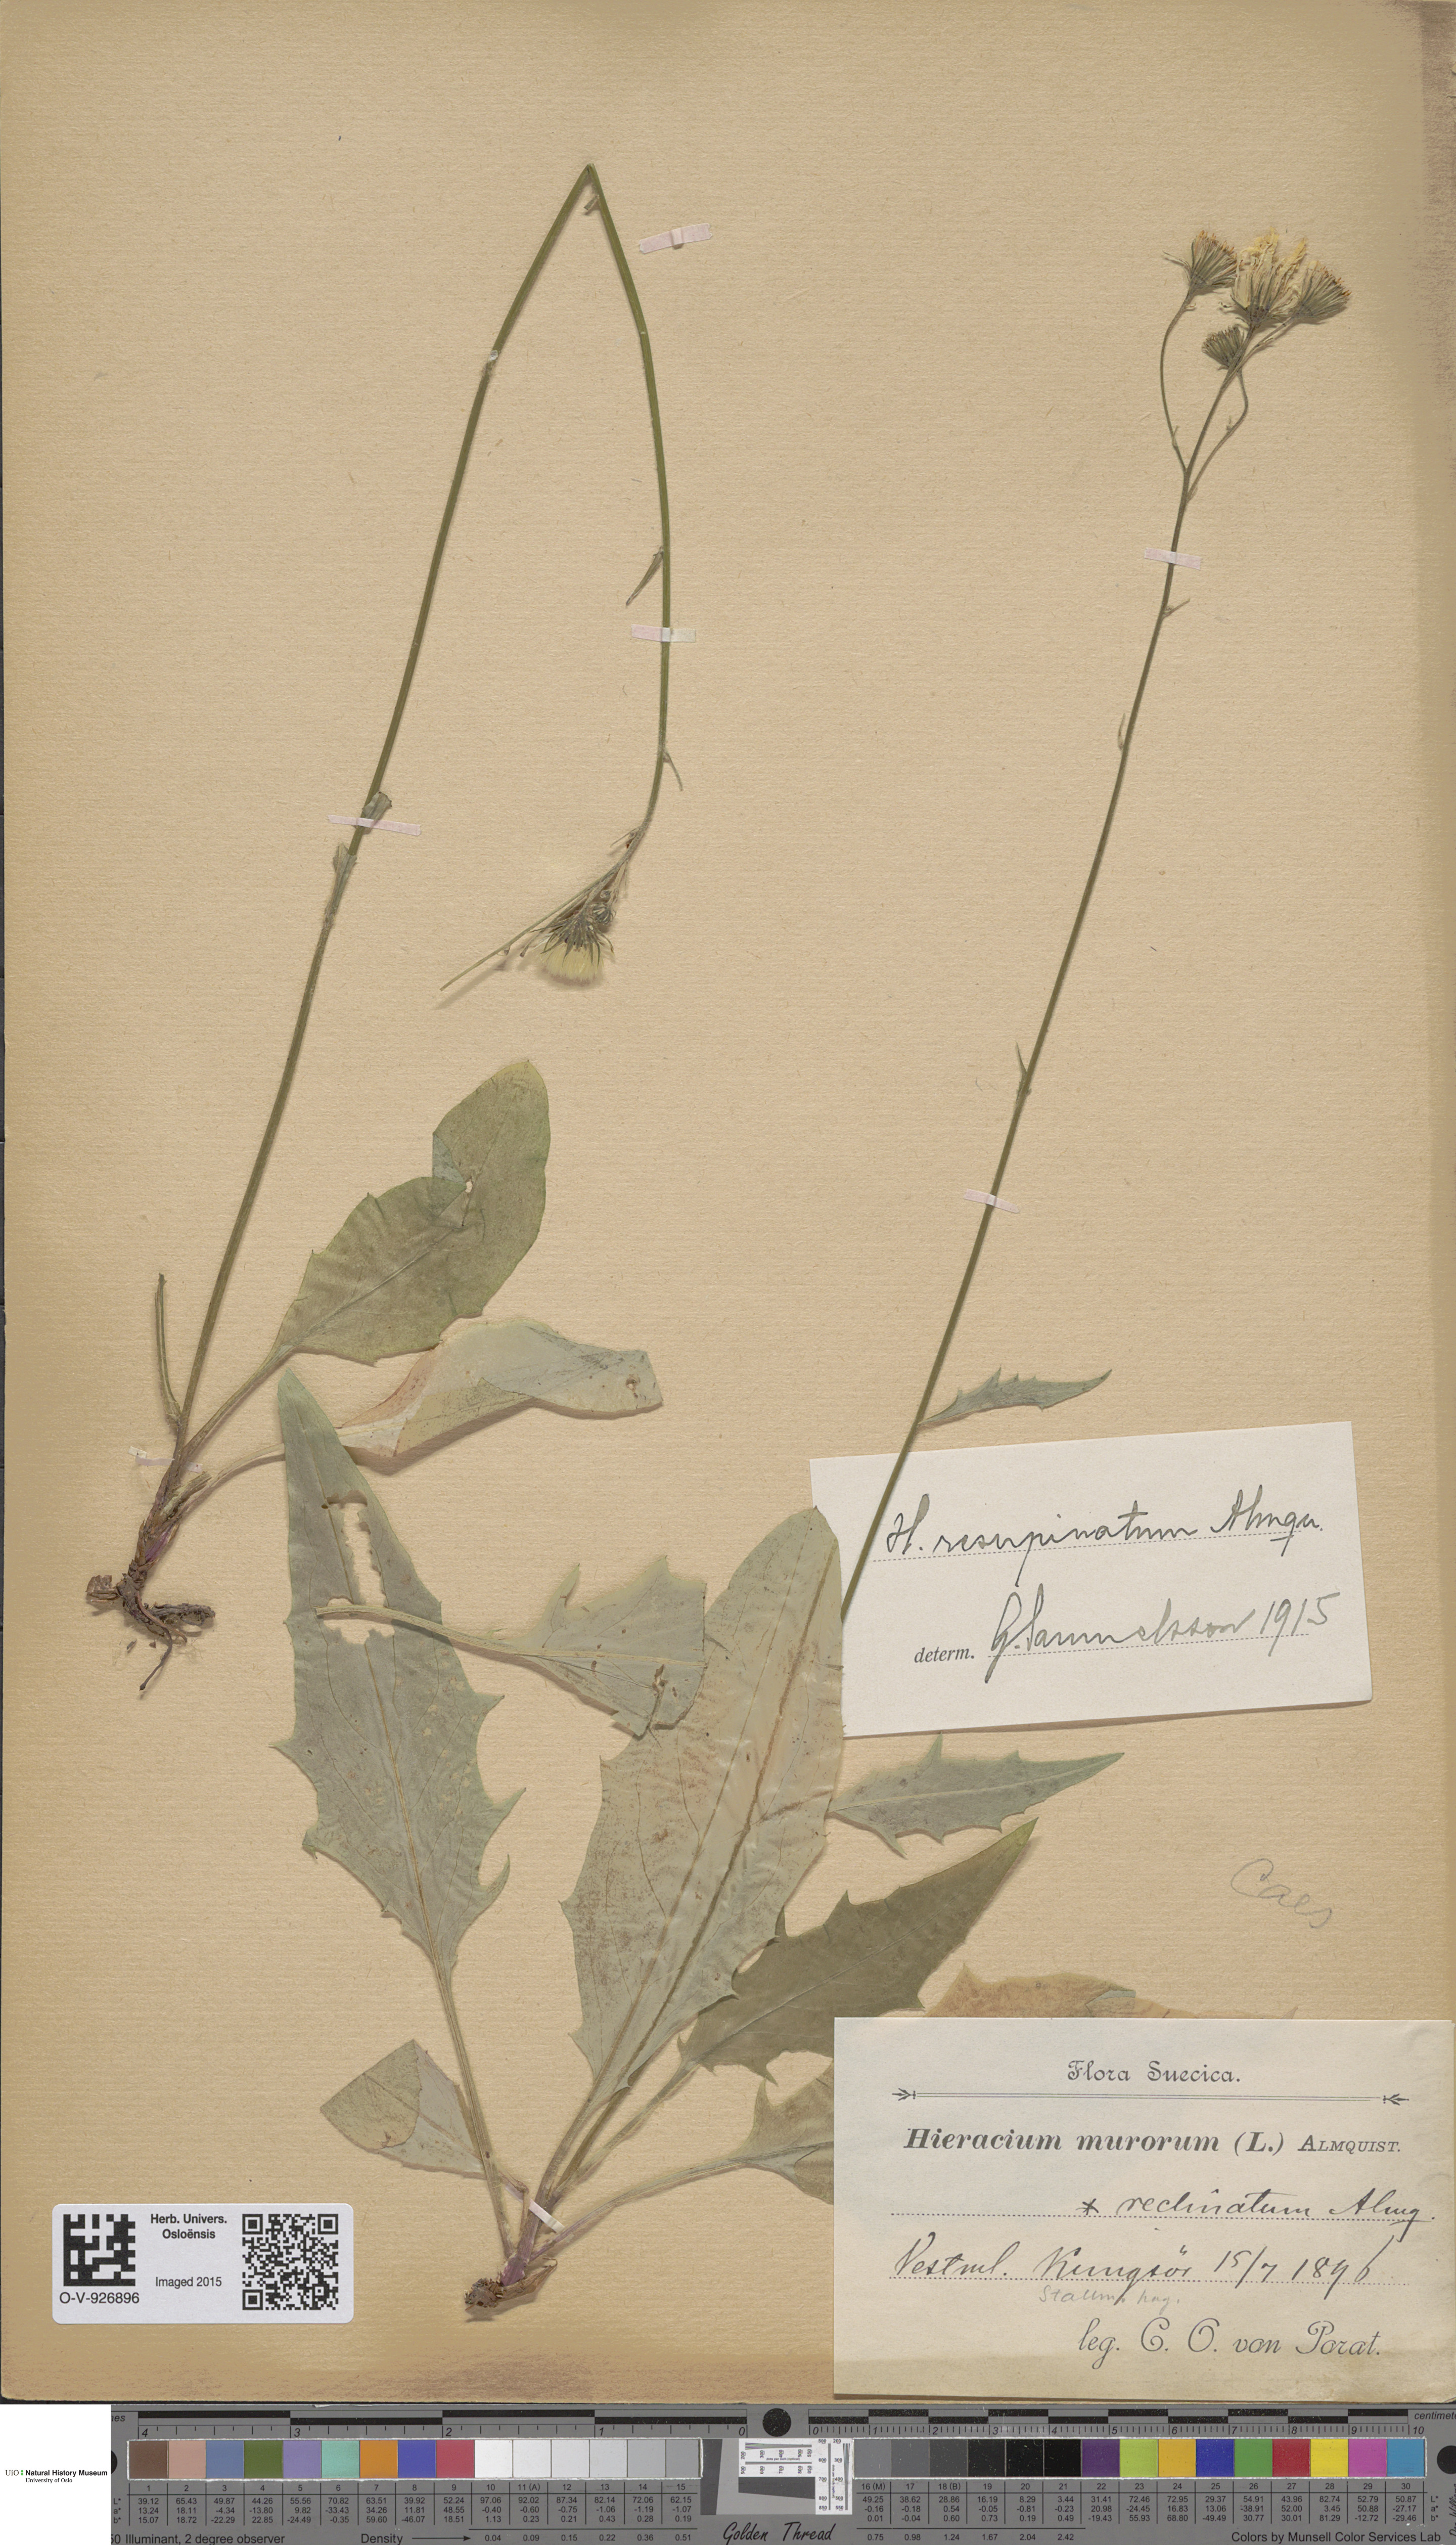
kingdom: Plantae
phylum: Tracheophyta
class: Magnoliopsida
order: Asterales
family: Asteraceae
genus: Hieracium
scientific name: Hieracium resupinatum
